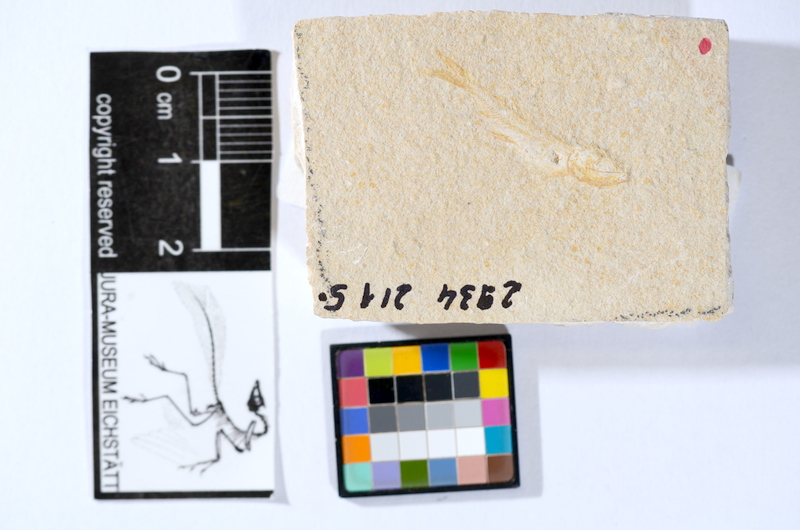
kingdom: Animalia
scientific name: Animalia
